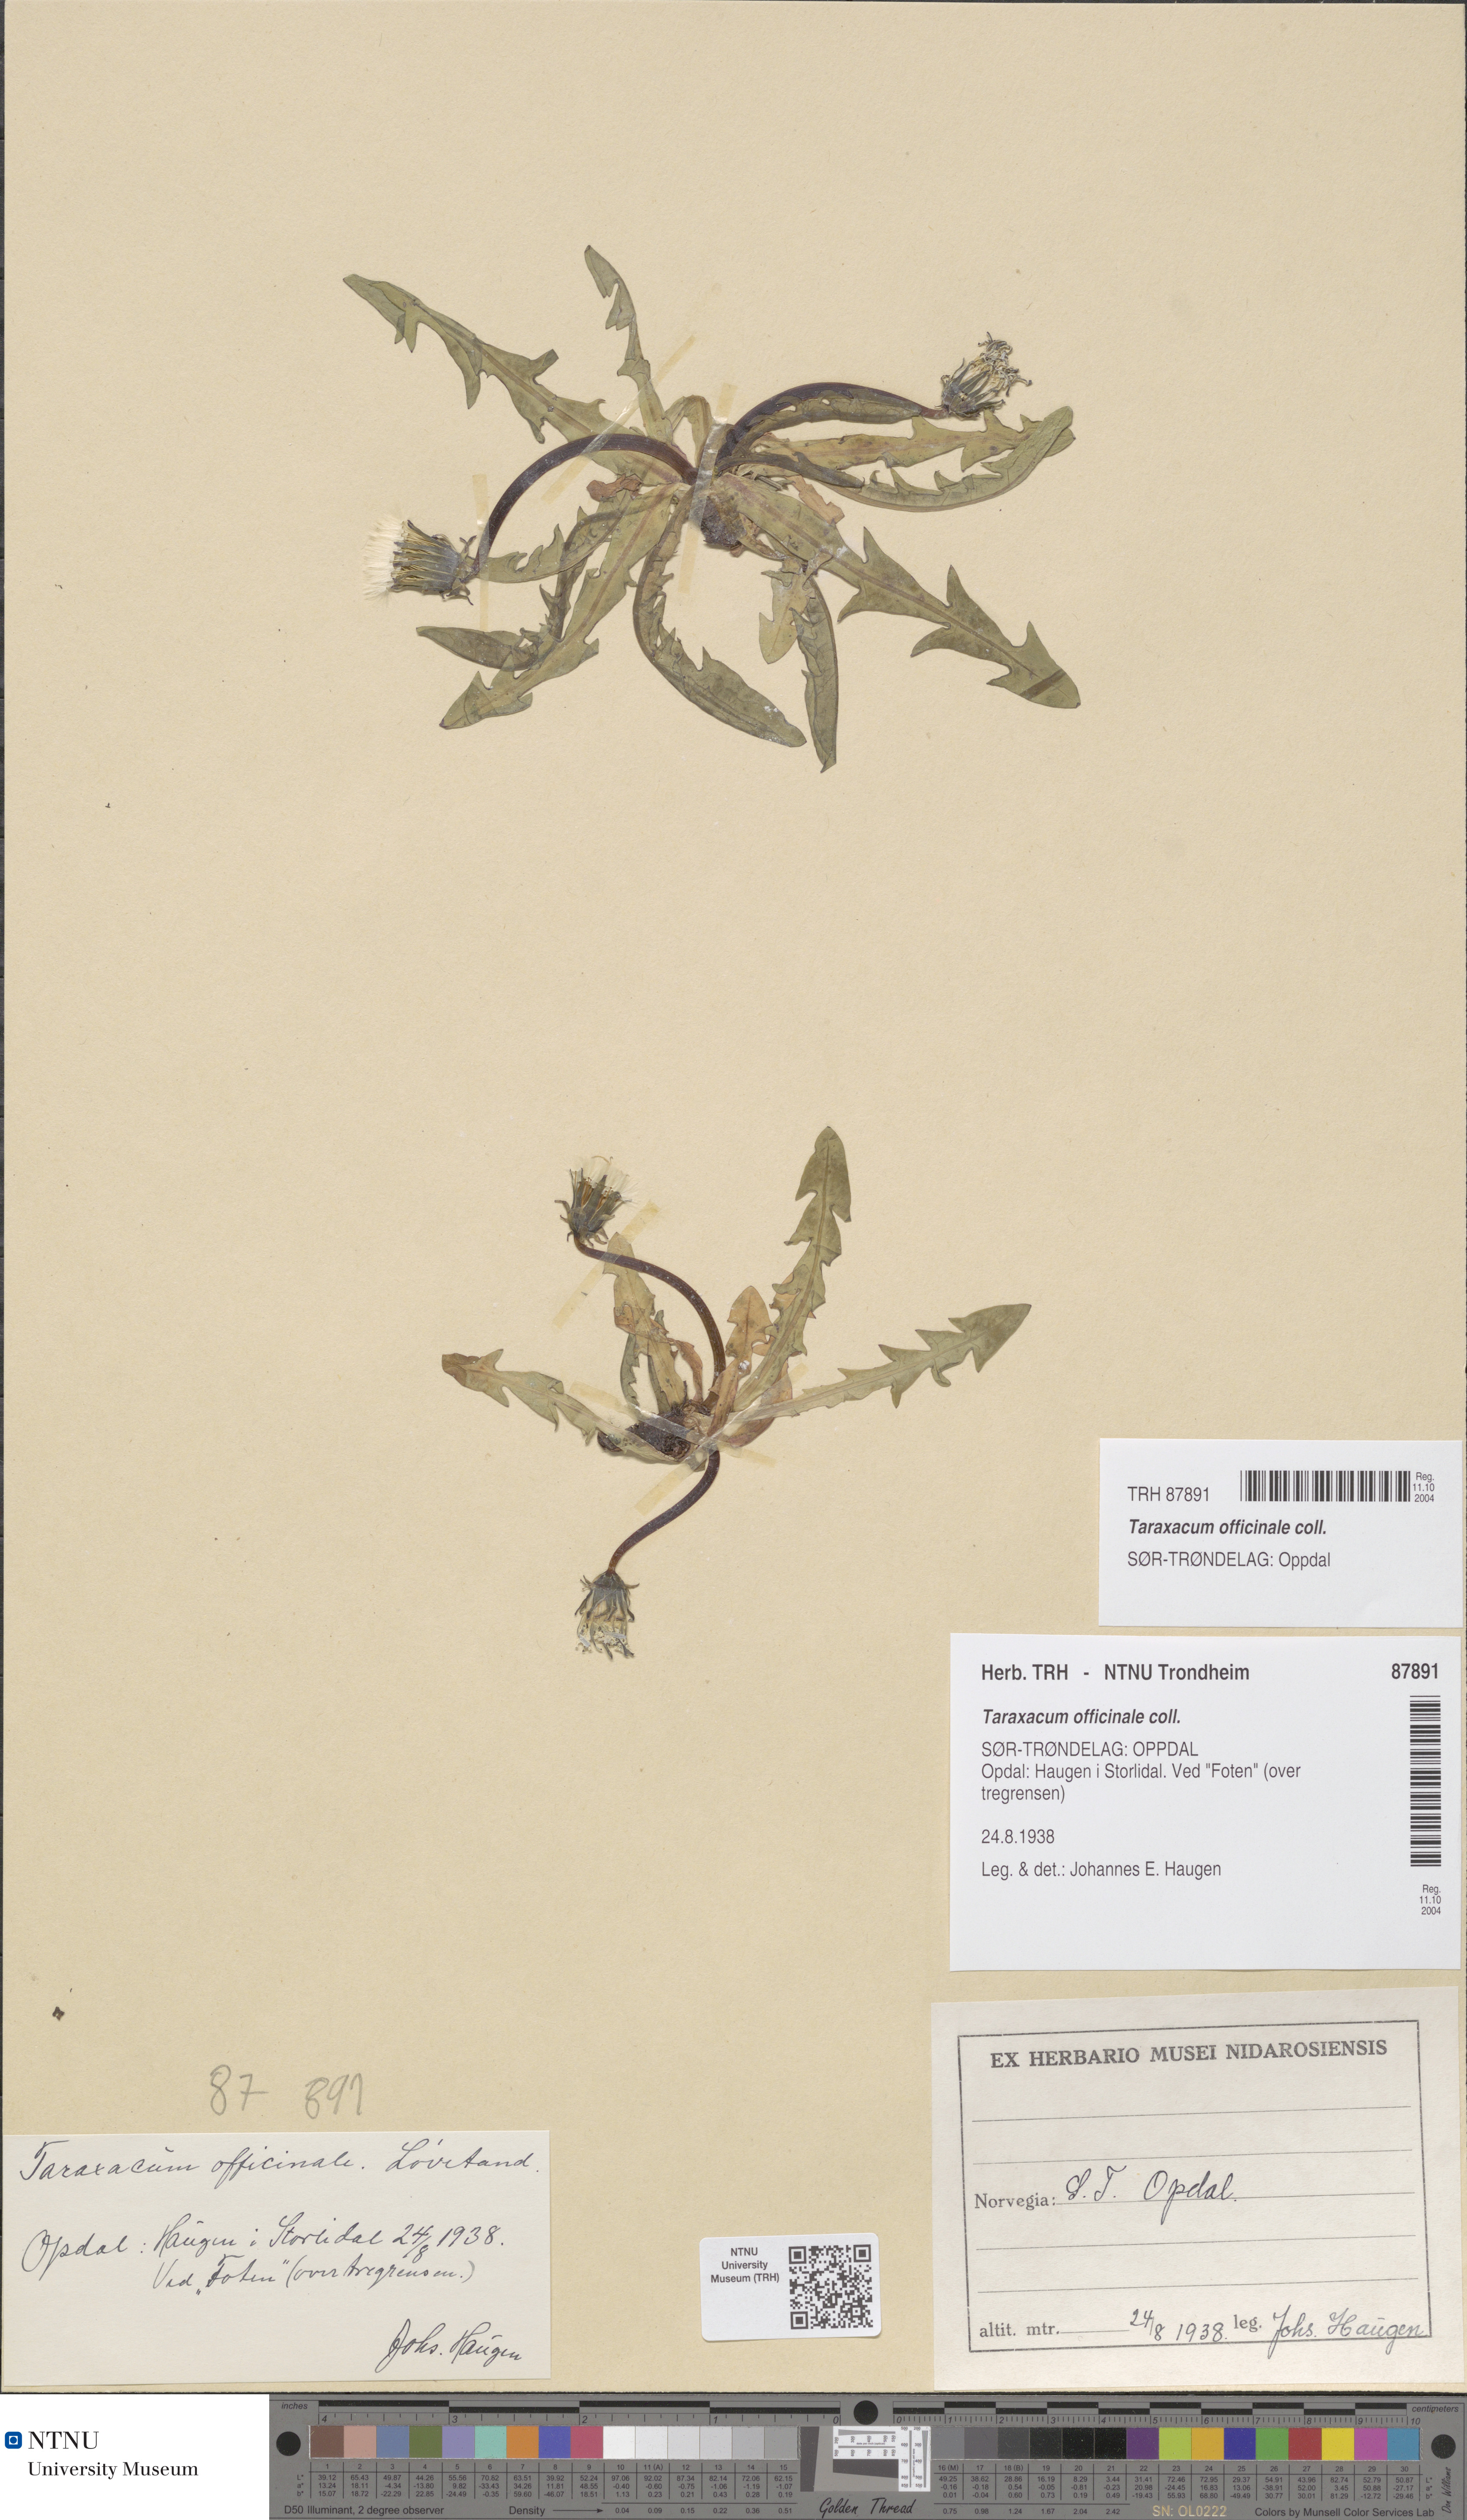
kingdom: Plantae
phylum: Tracheophyta
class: Magnoliopsida
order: Asterales
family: Asteraceae
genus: Taraxacum
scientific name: Taraxacum officinale
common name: Common dandelion
